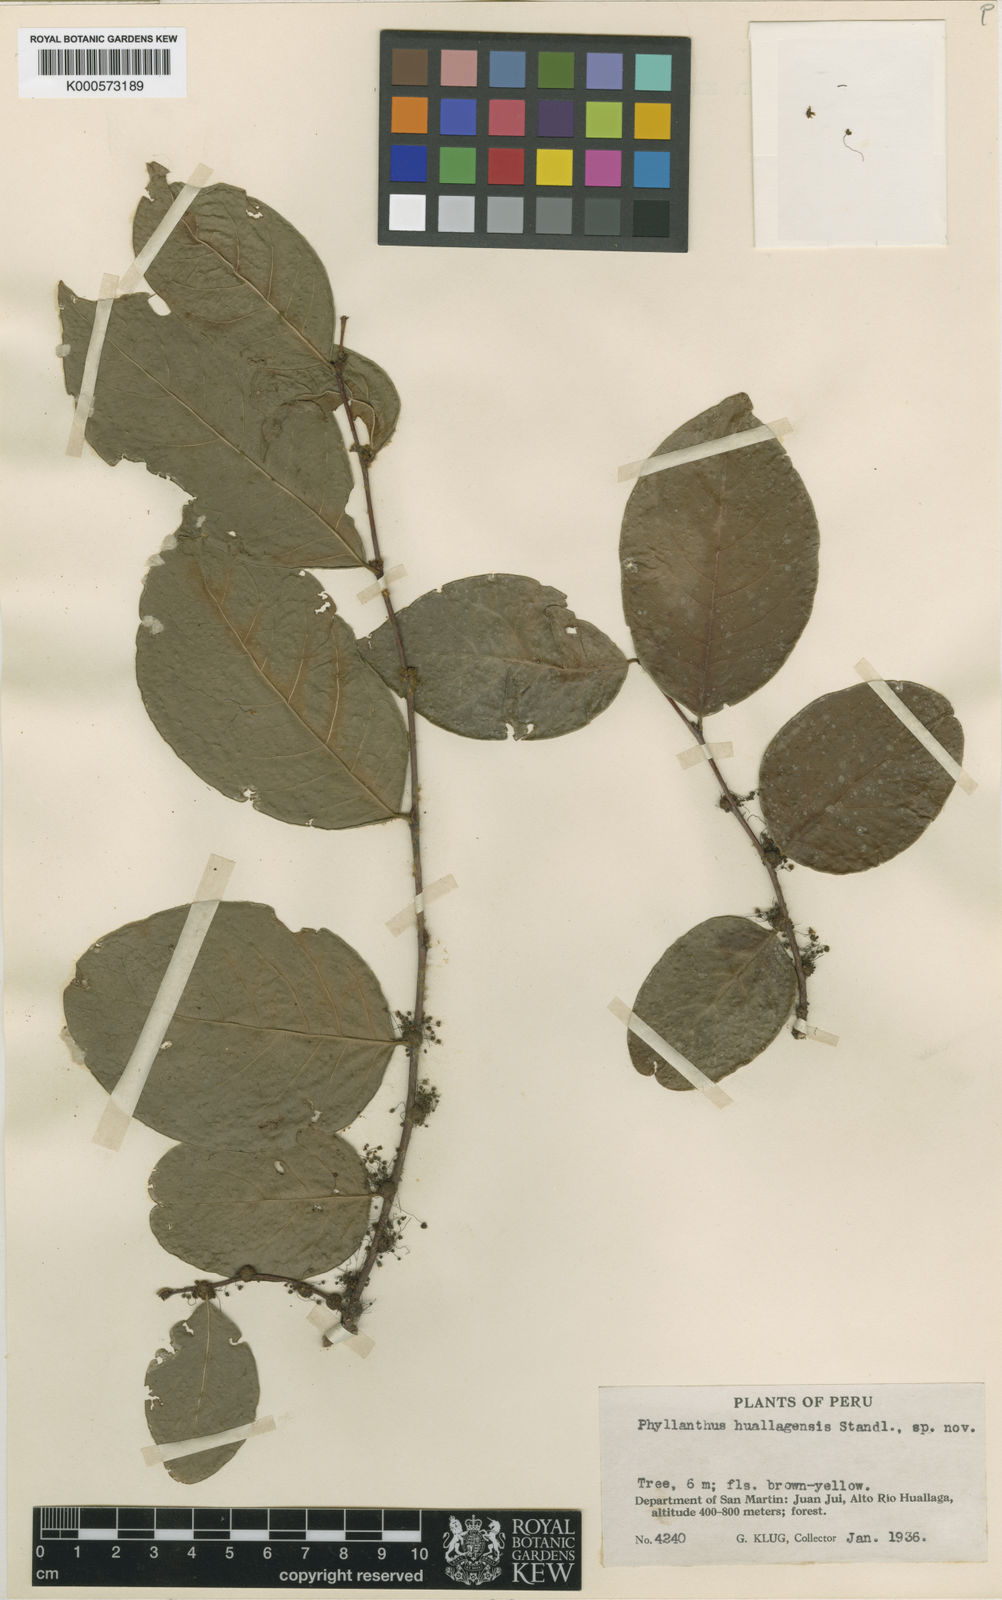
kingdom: Plantae
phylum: Tracheophyta
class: Magnoliopsida
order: Malpighiales
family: Phyllanthaceae
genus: Phyllanthus
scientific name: Phyllanthus huallagensis
